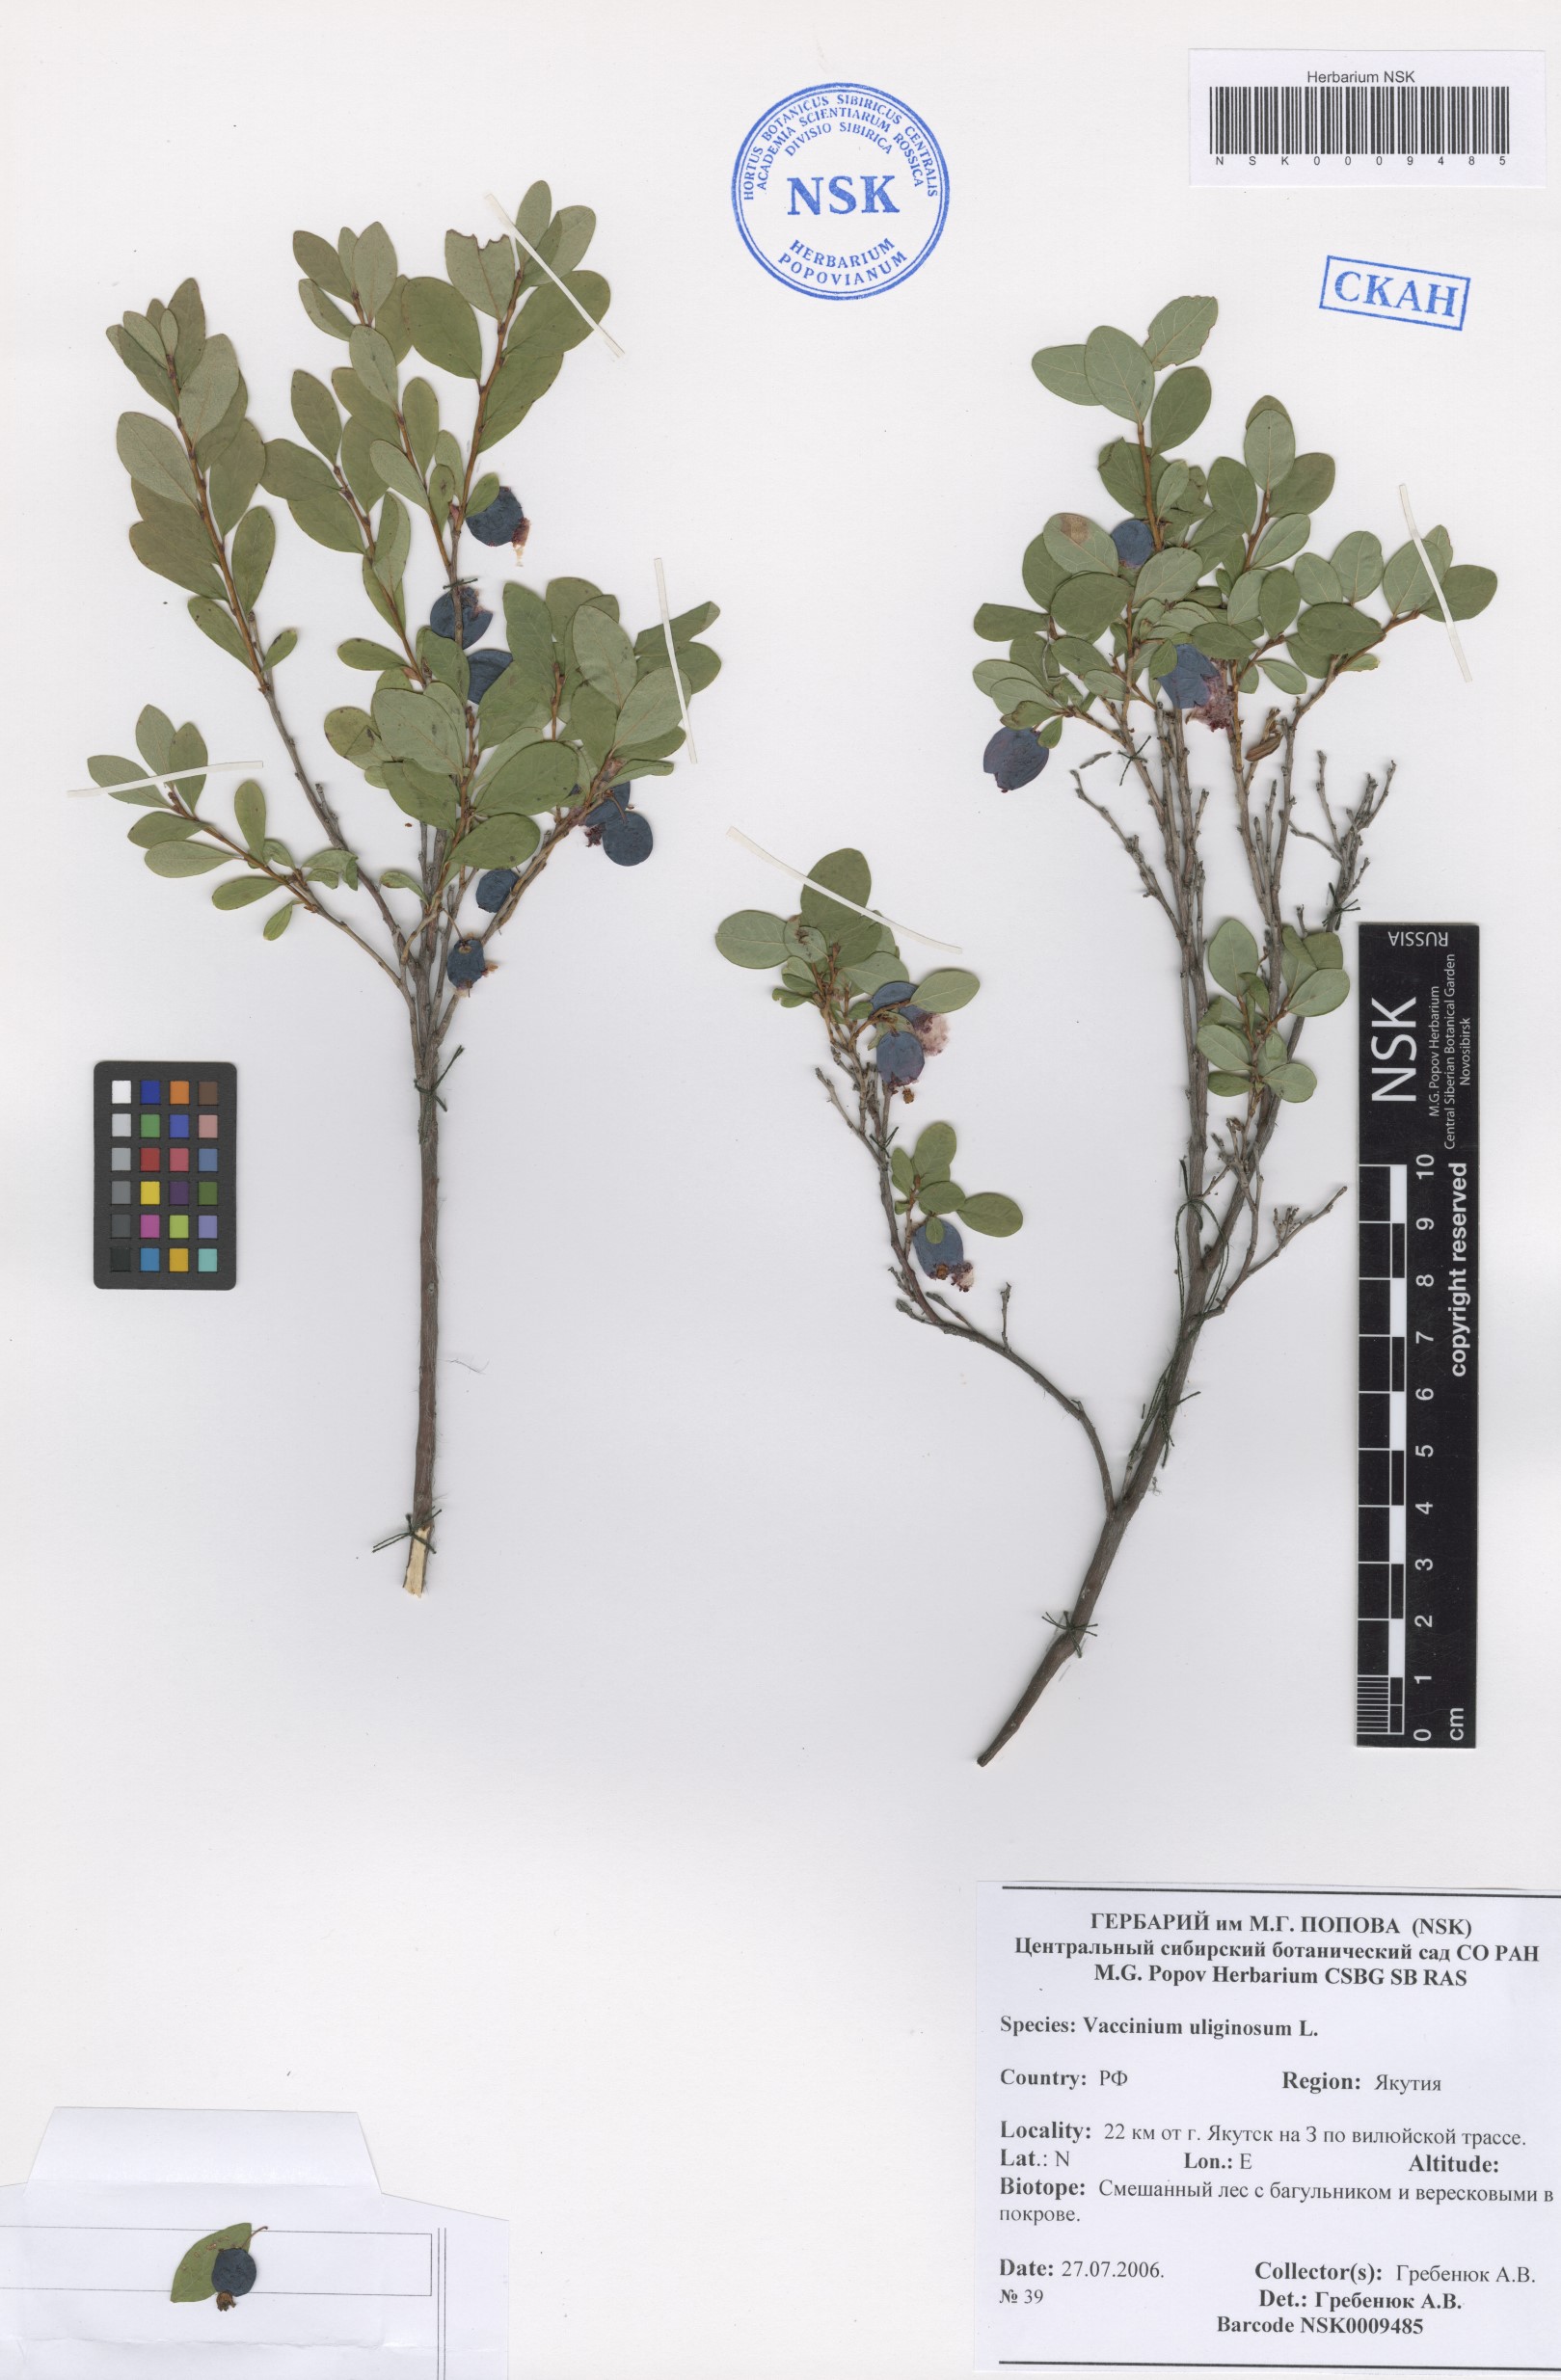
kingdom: Plantae
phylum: Tracheophyta
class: Magnoliopsida
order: Ericales
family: Ericaceae
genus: Vaccinium
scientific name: Vaccinium uliginosum
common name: Bog bilberry
